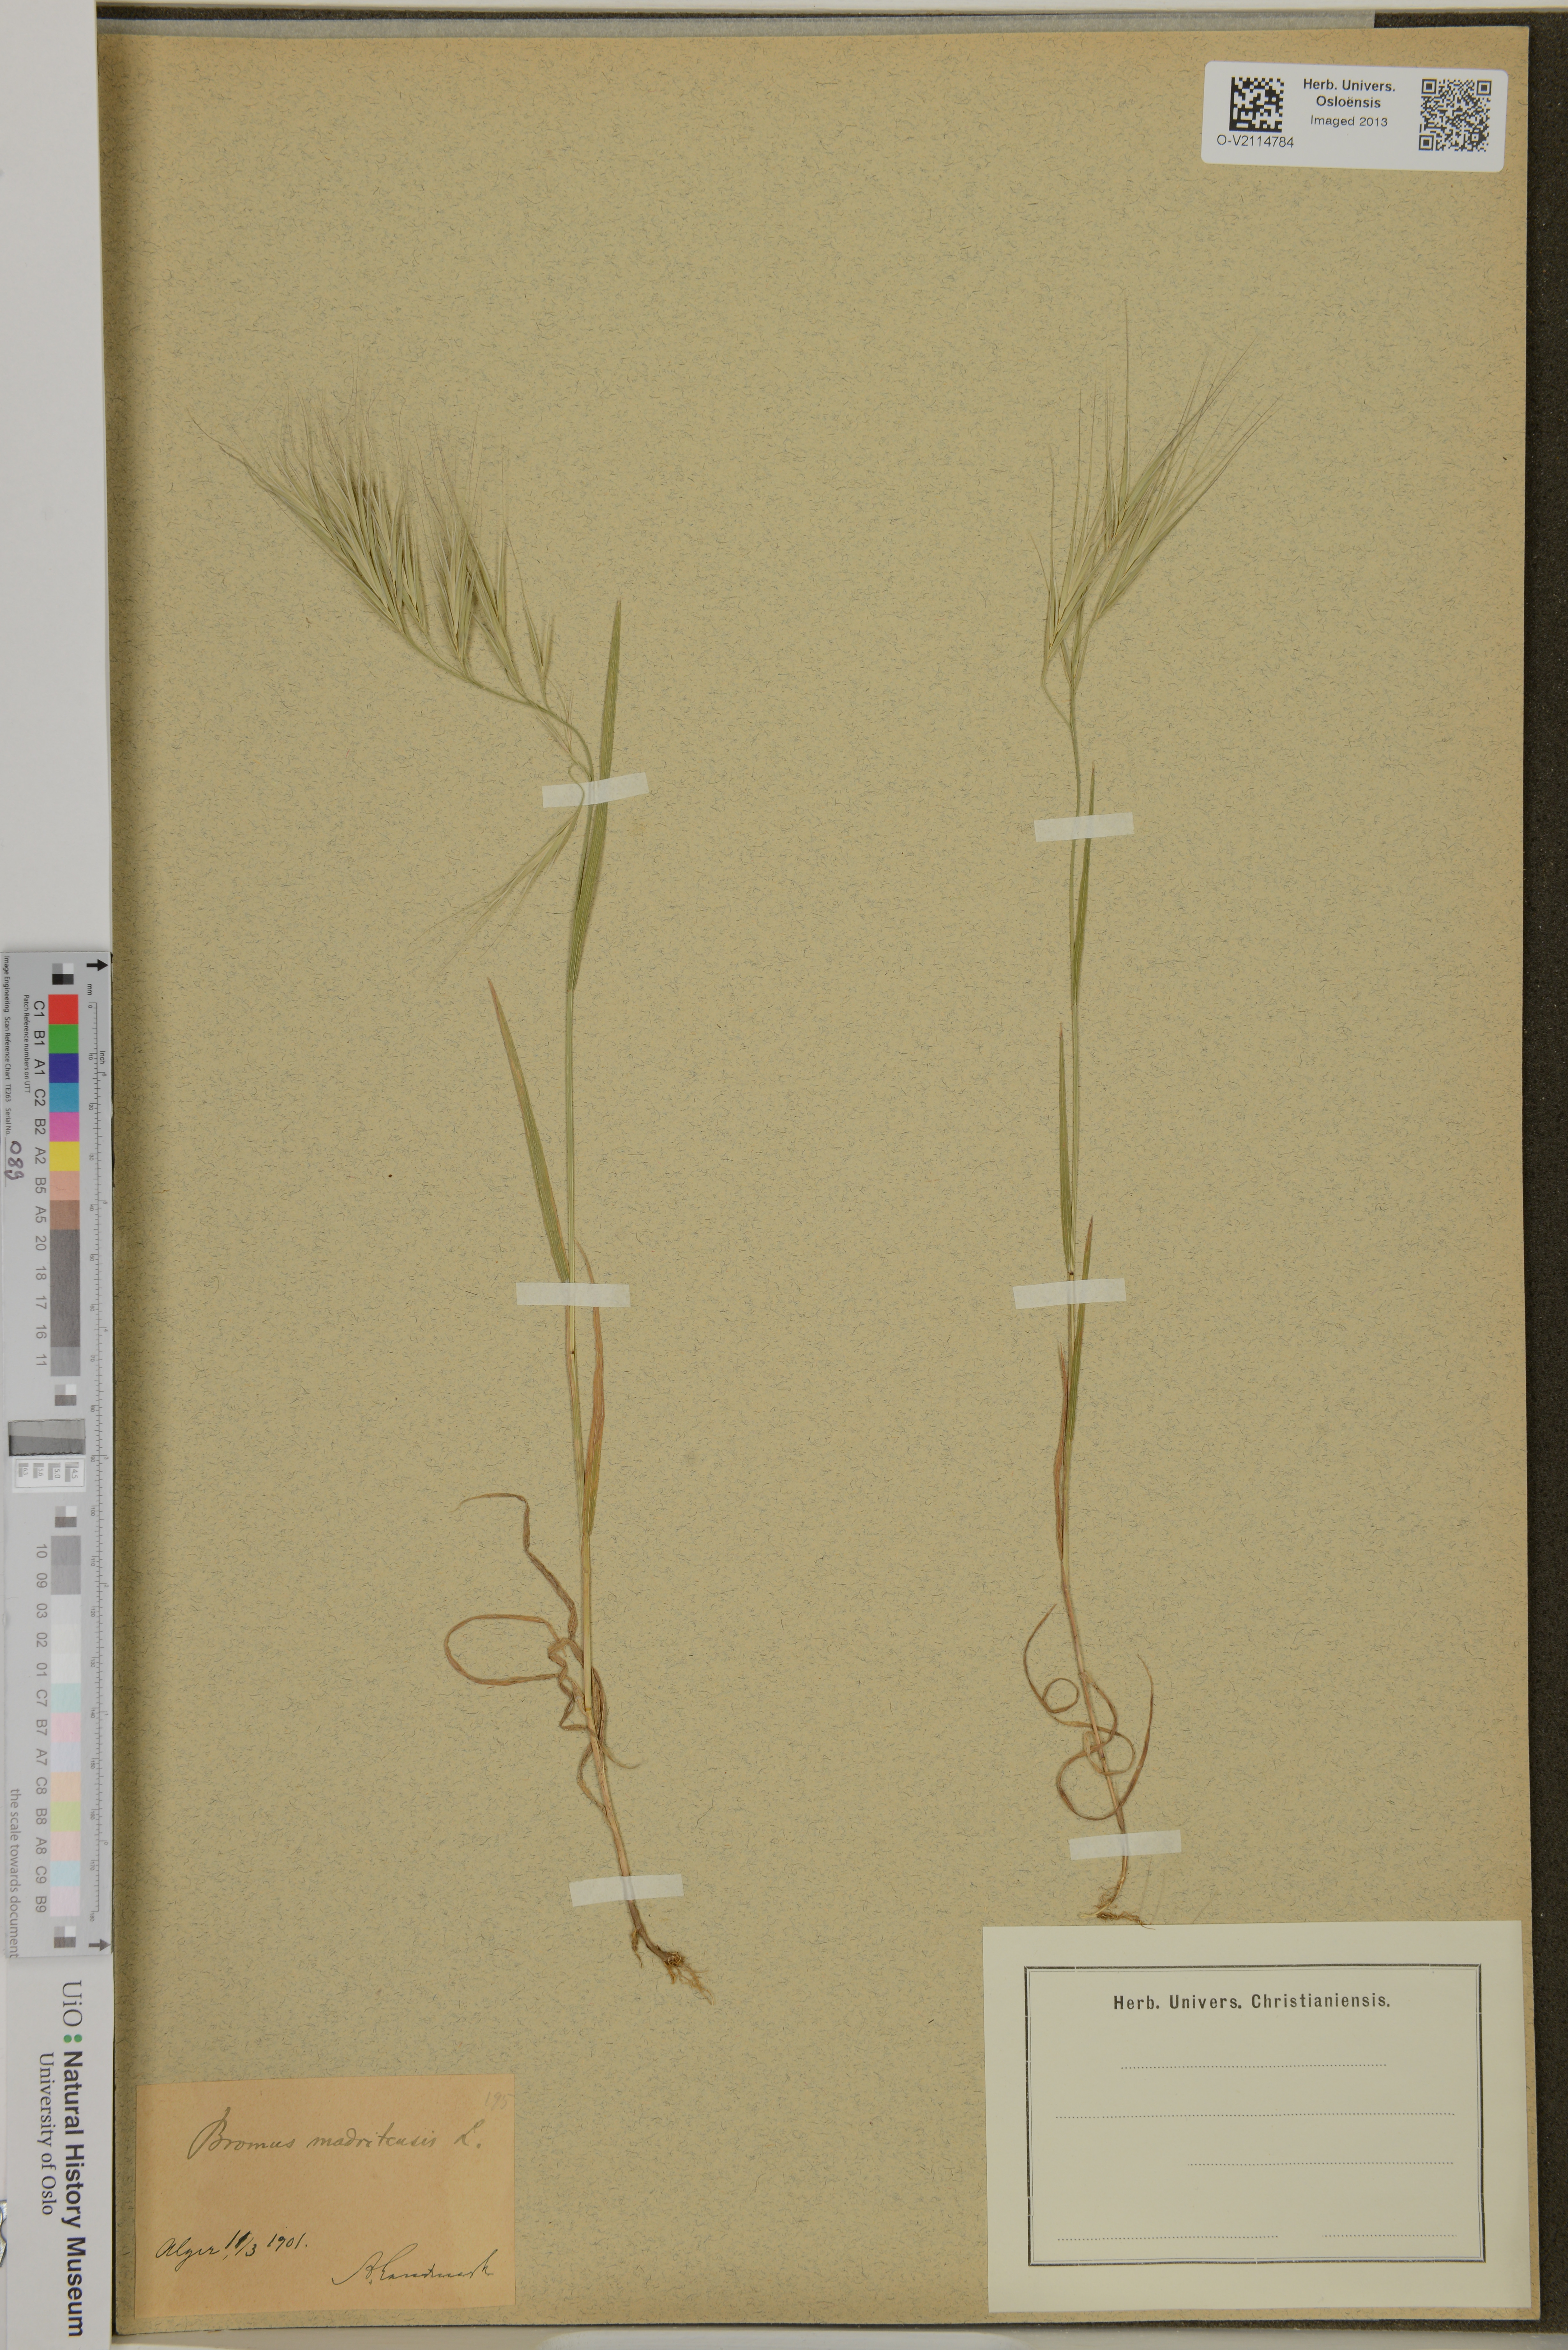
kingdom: Plantae
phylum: Tracheophyta
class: Liliopsida
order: Poales
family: Poaceae
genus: Bromus
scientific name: Bromus madritensis
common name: Compact brome
